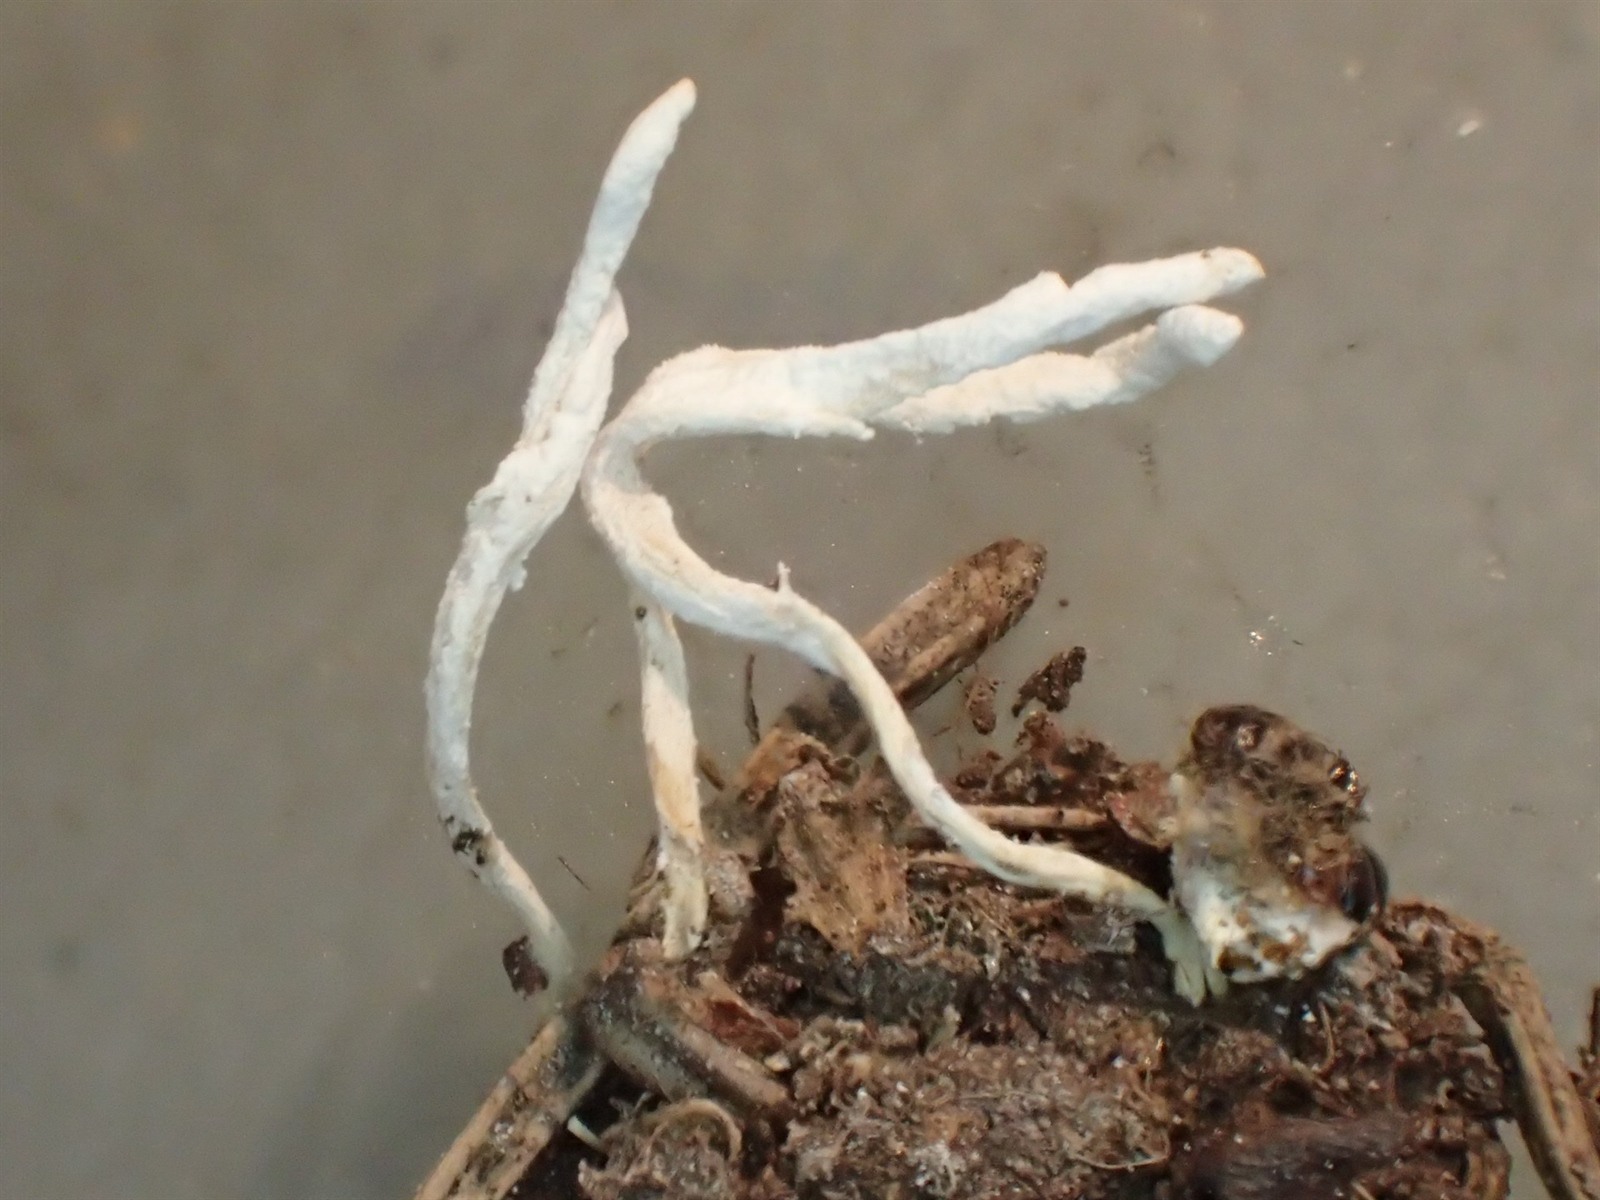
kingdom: Fungi
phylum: Ascomycota
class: Sordariomycetes
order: Hypocreales
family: Cordycipitaceae
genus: Cordyceps
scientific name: Cordyceps farinosa
